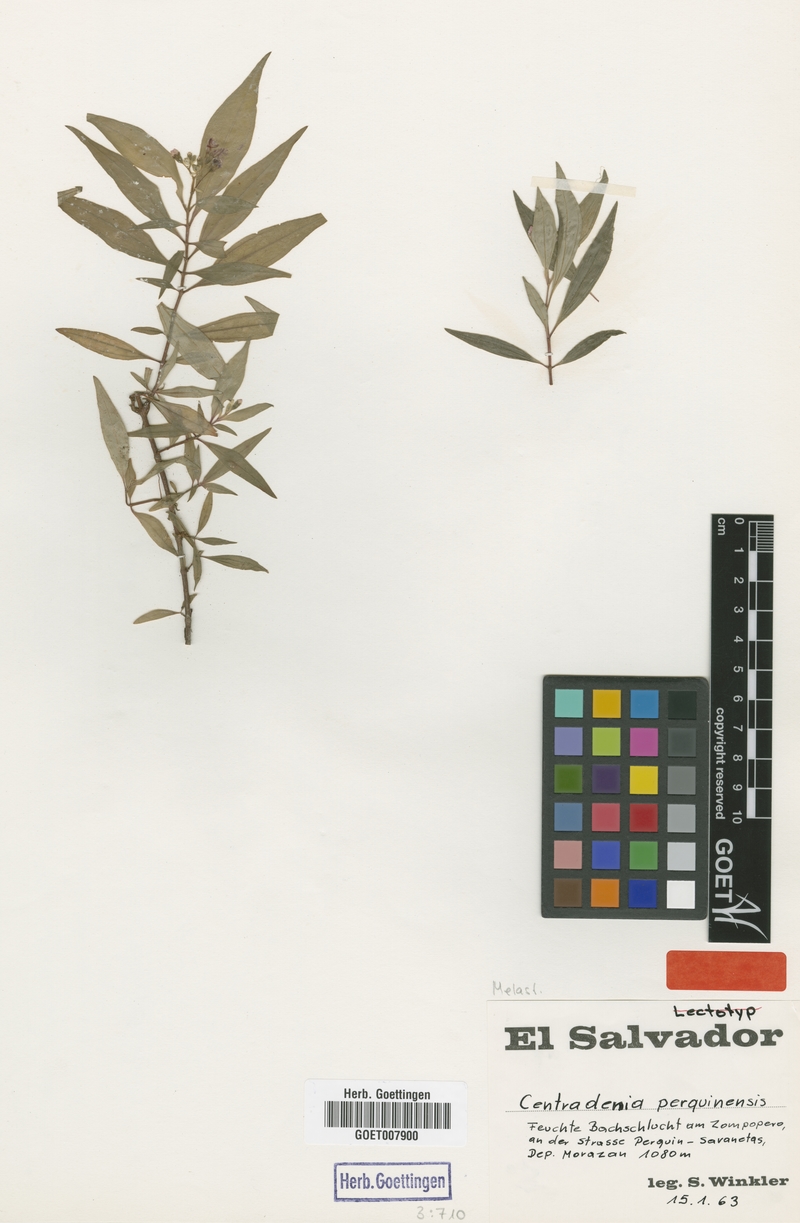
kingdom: Plantae
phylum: Tracheophyta
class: Magnoliopsida
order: Myrtales
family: Melastomataceae
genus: Centradenia
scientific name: Centradenia floribunda
